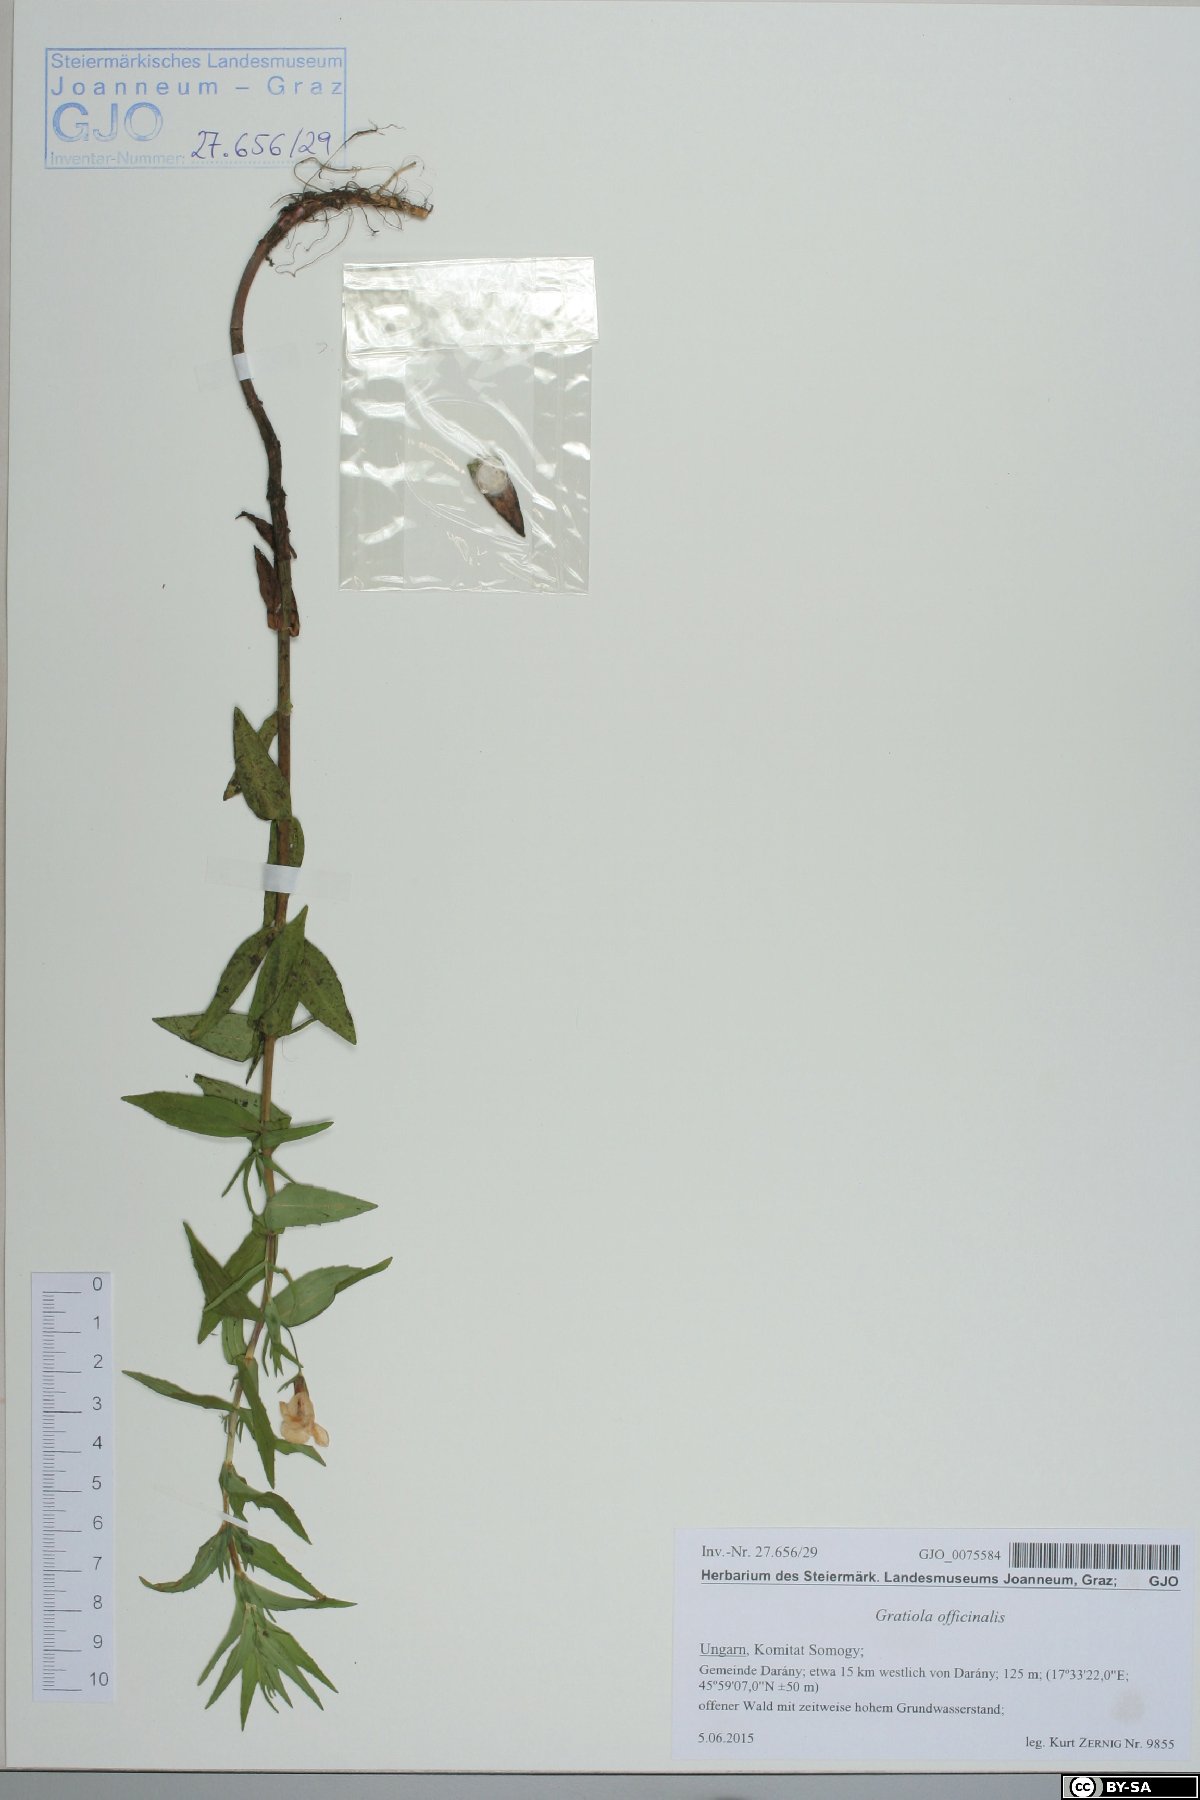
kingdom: Plantae
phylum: Tracheophyta
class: Magnoliopsida
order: Lamiales
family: Plantaginaceae
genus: Gratiola
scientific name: Gratiola officinalis
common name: Gratiola
